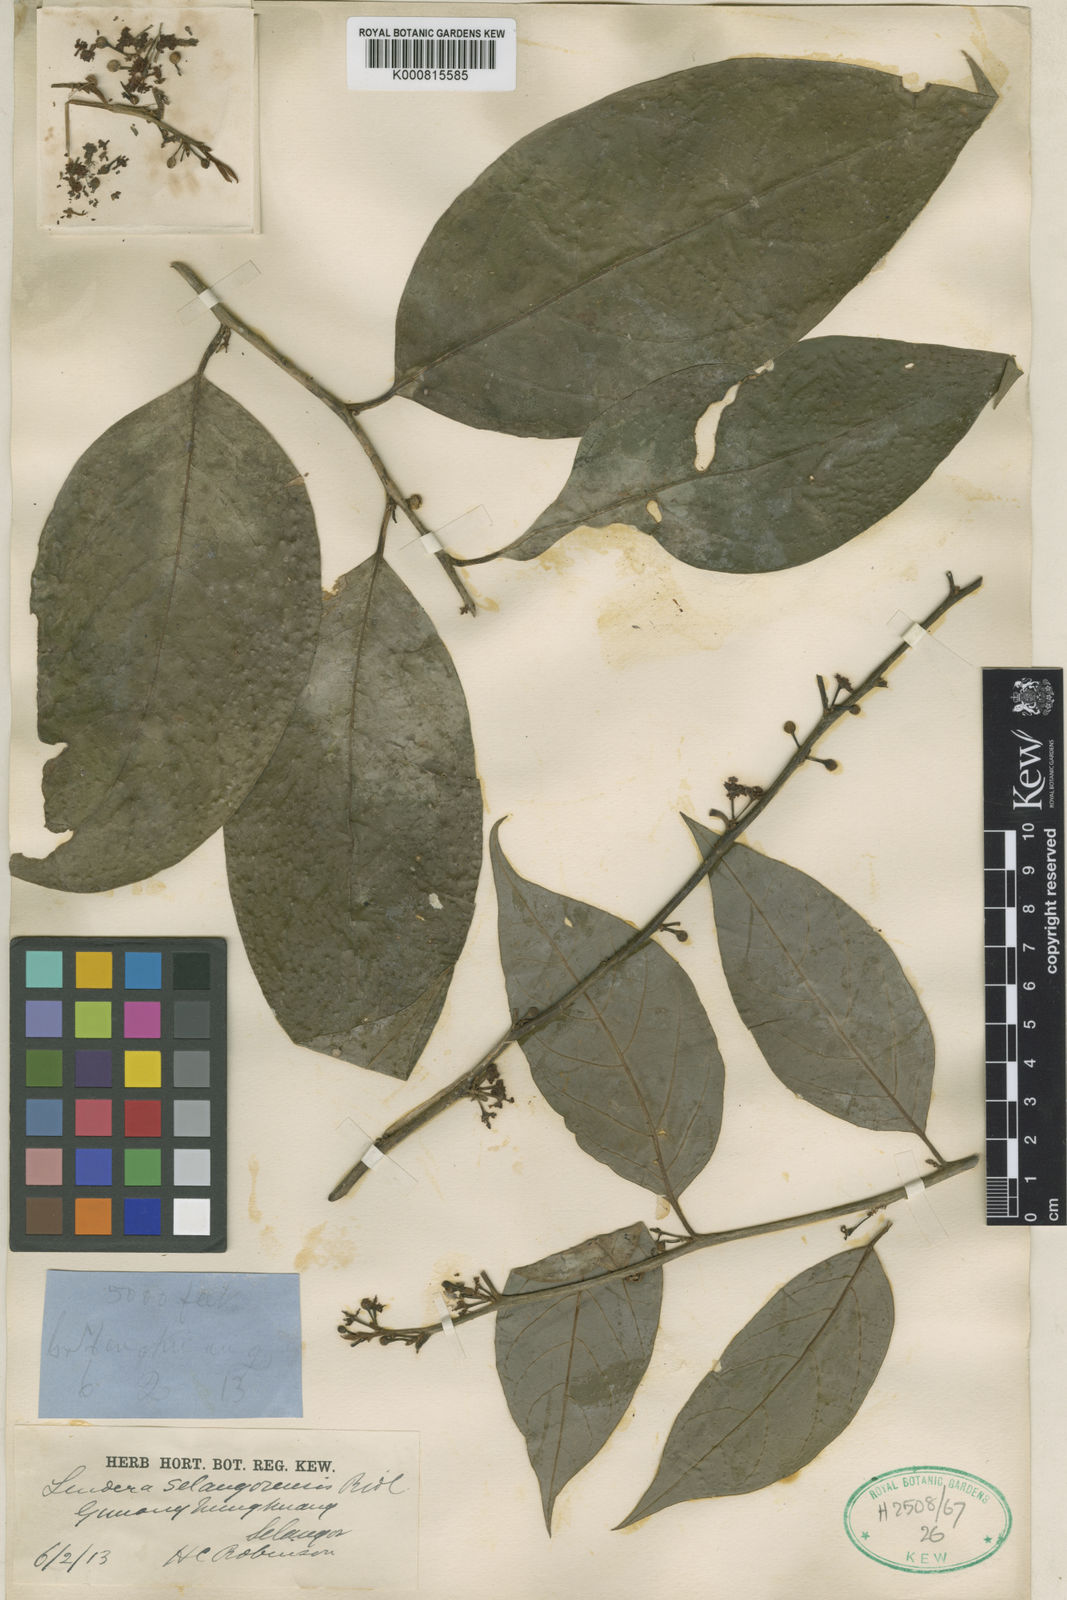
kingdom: Plantae
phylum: Tracheophyta
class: Magnoliopsida
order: Laurales
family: Lauraceae
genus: Lindera
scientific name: Lindera selangorensis
